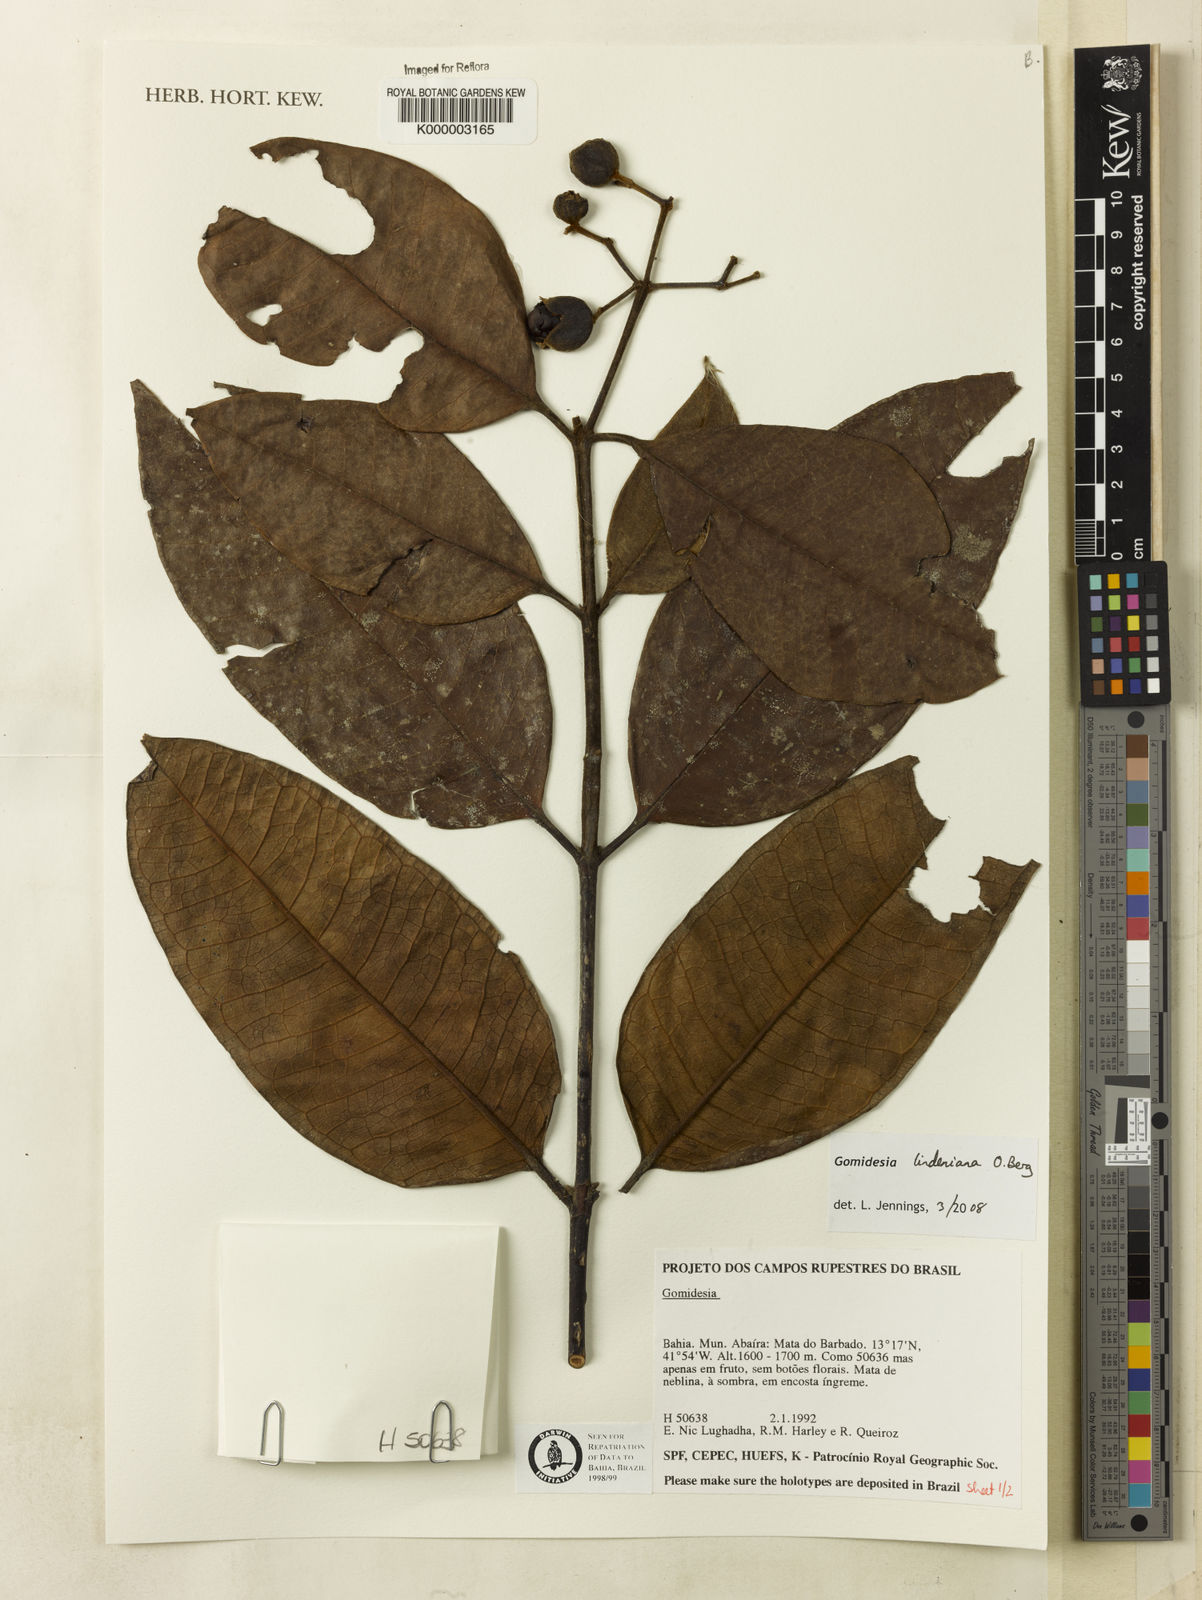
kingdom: Plantae
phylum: Tracheophyta
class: Magnoliopsida
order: Myrtales
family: Myrtaceae
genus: Myrcia
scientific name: Myrcia
